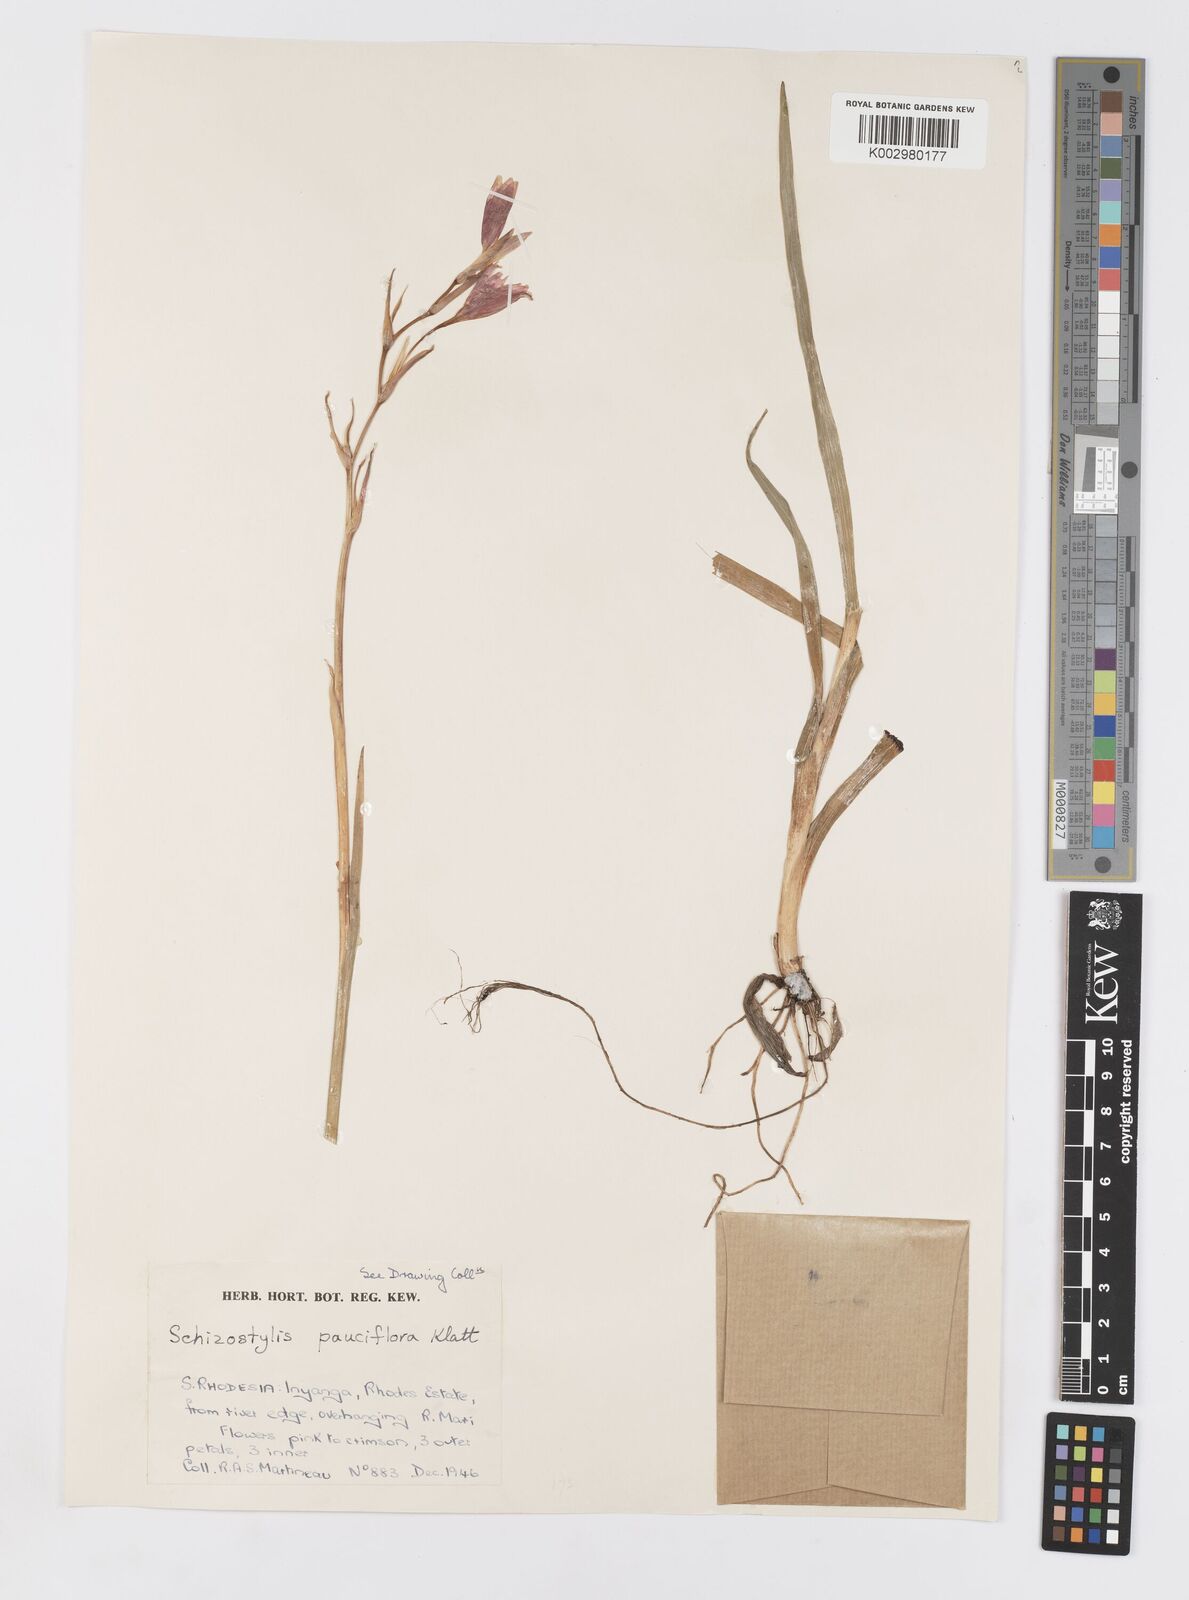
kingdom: Plantae
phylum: Tracheophyta
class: Liliopsida
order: Asparagales
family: Iridaceae
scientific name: Iridaceae
